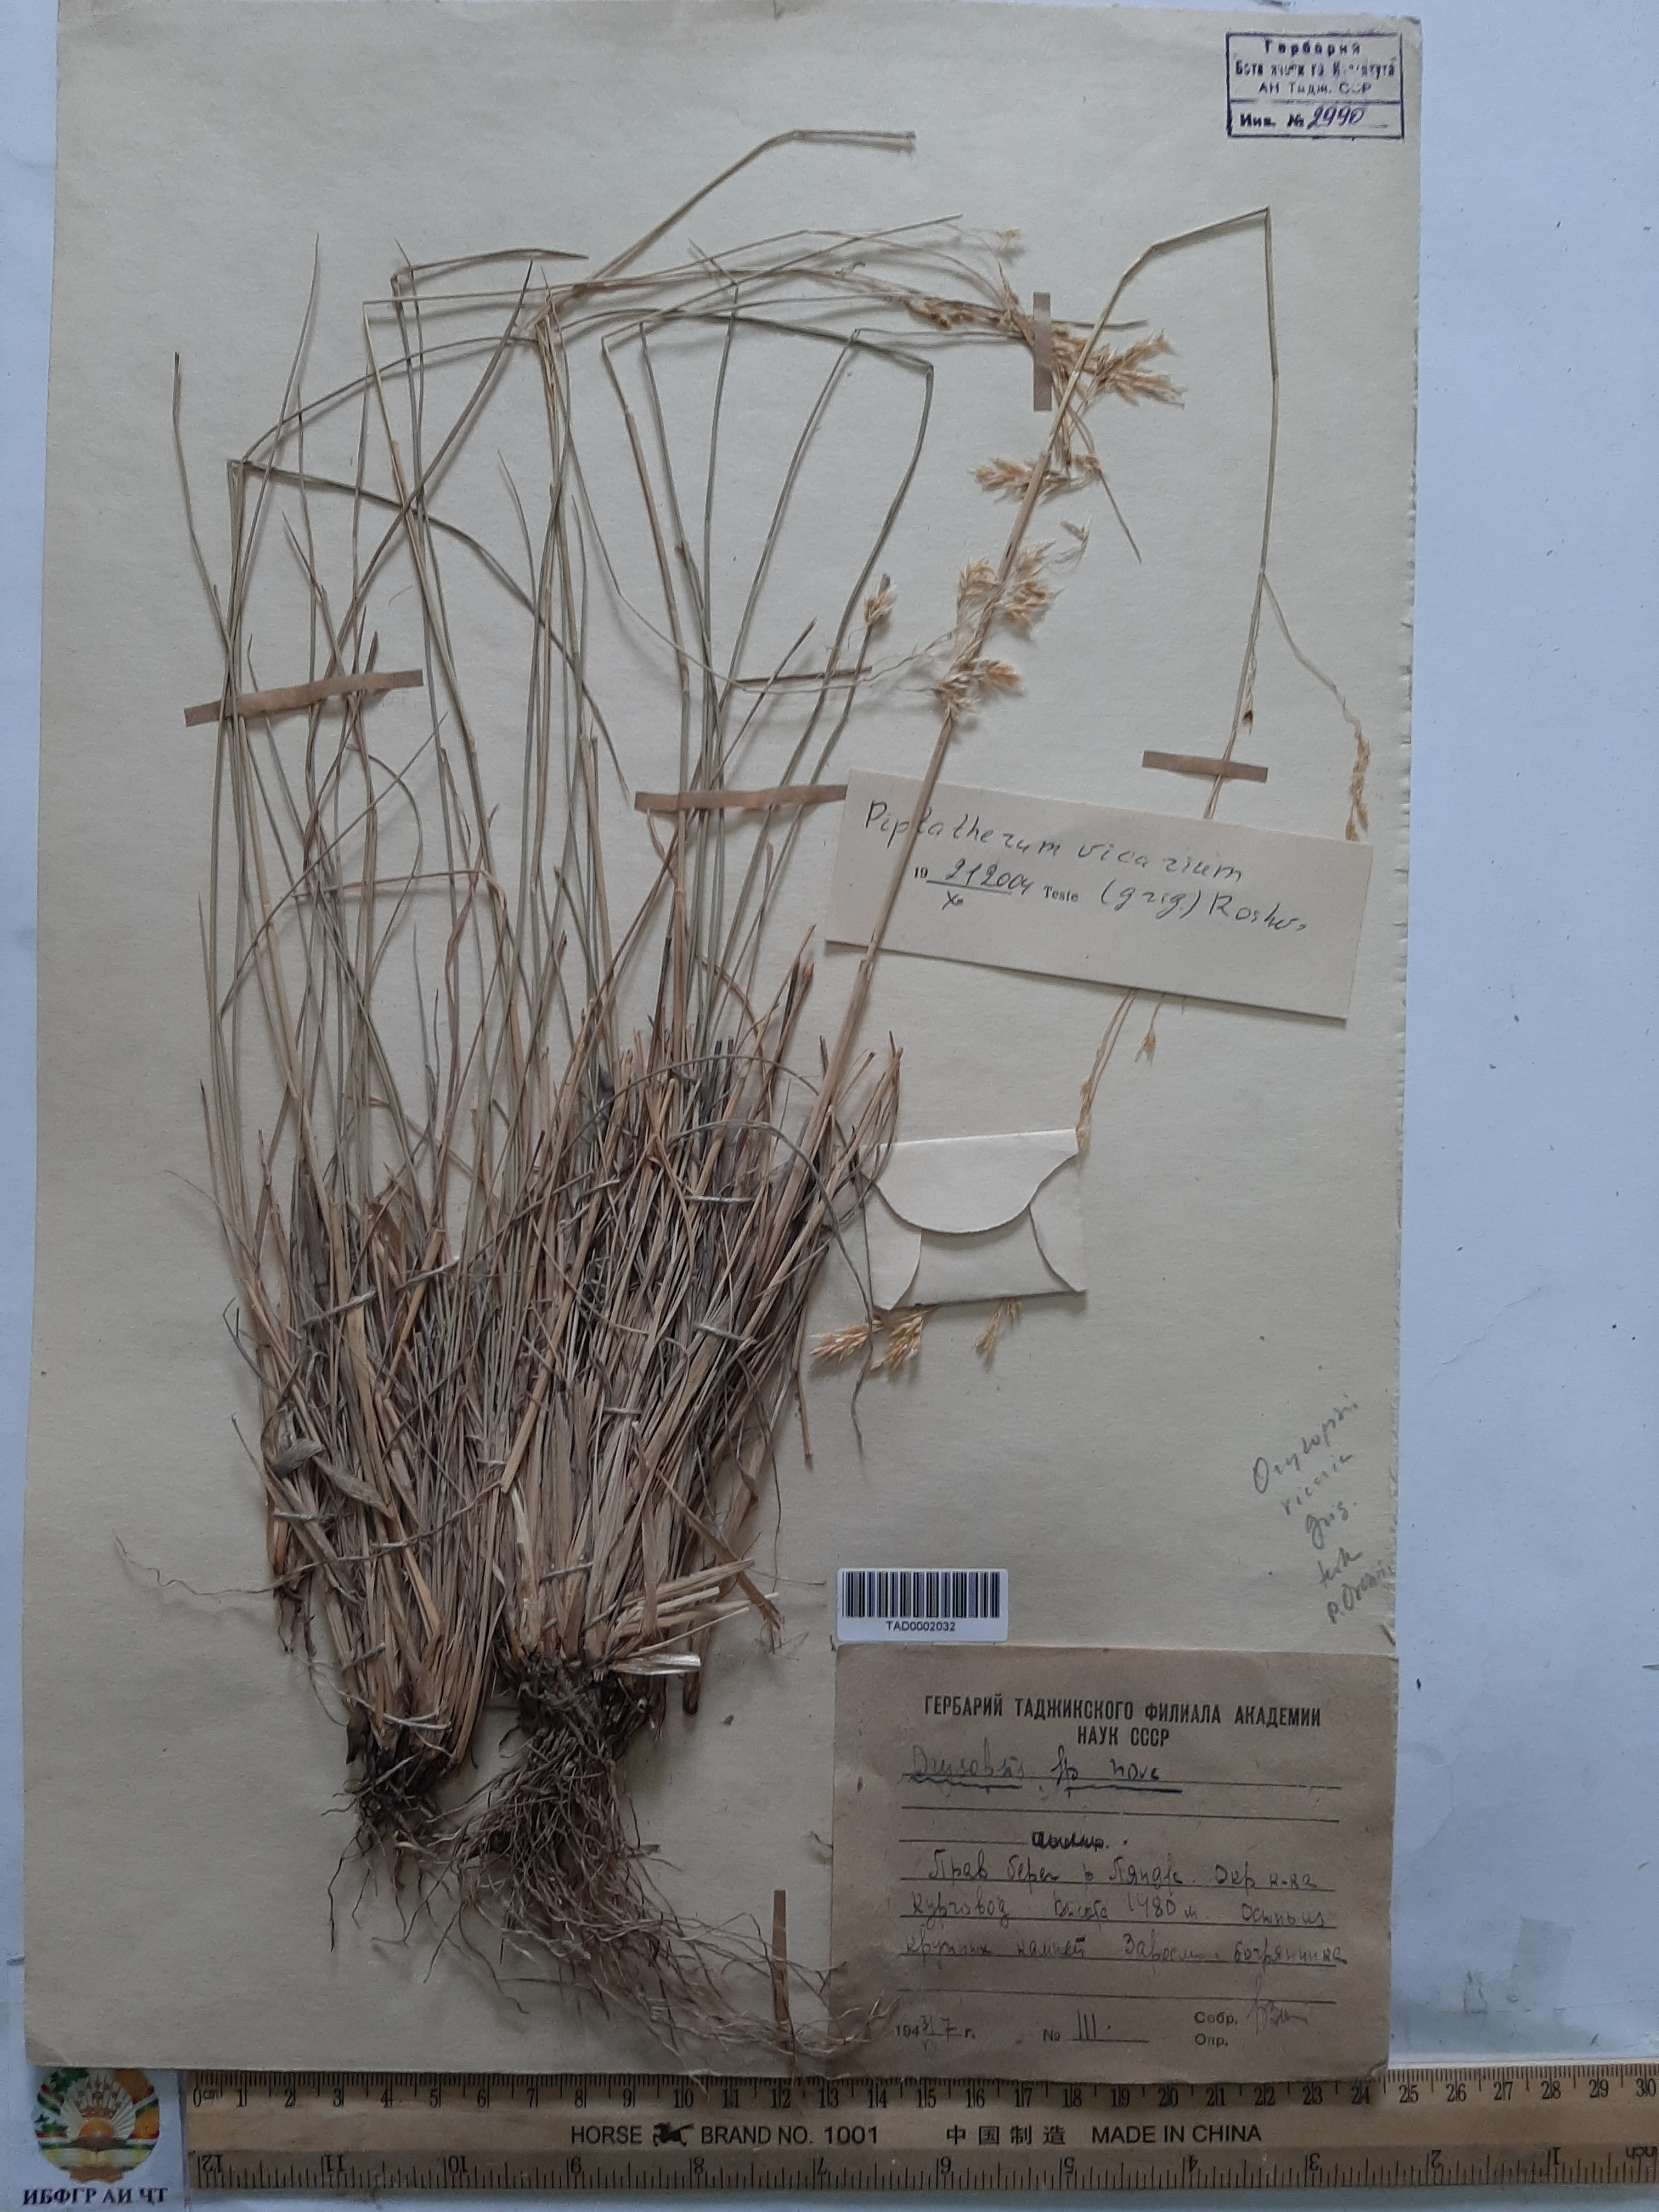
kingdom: Plantae
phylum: Tracheophyta
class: Liliopsida
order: Poales
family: Poaceae
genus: Piptatherum
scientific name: Piptatherum microcarpum
